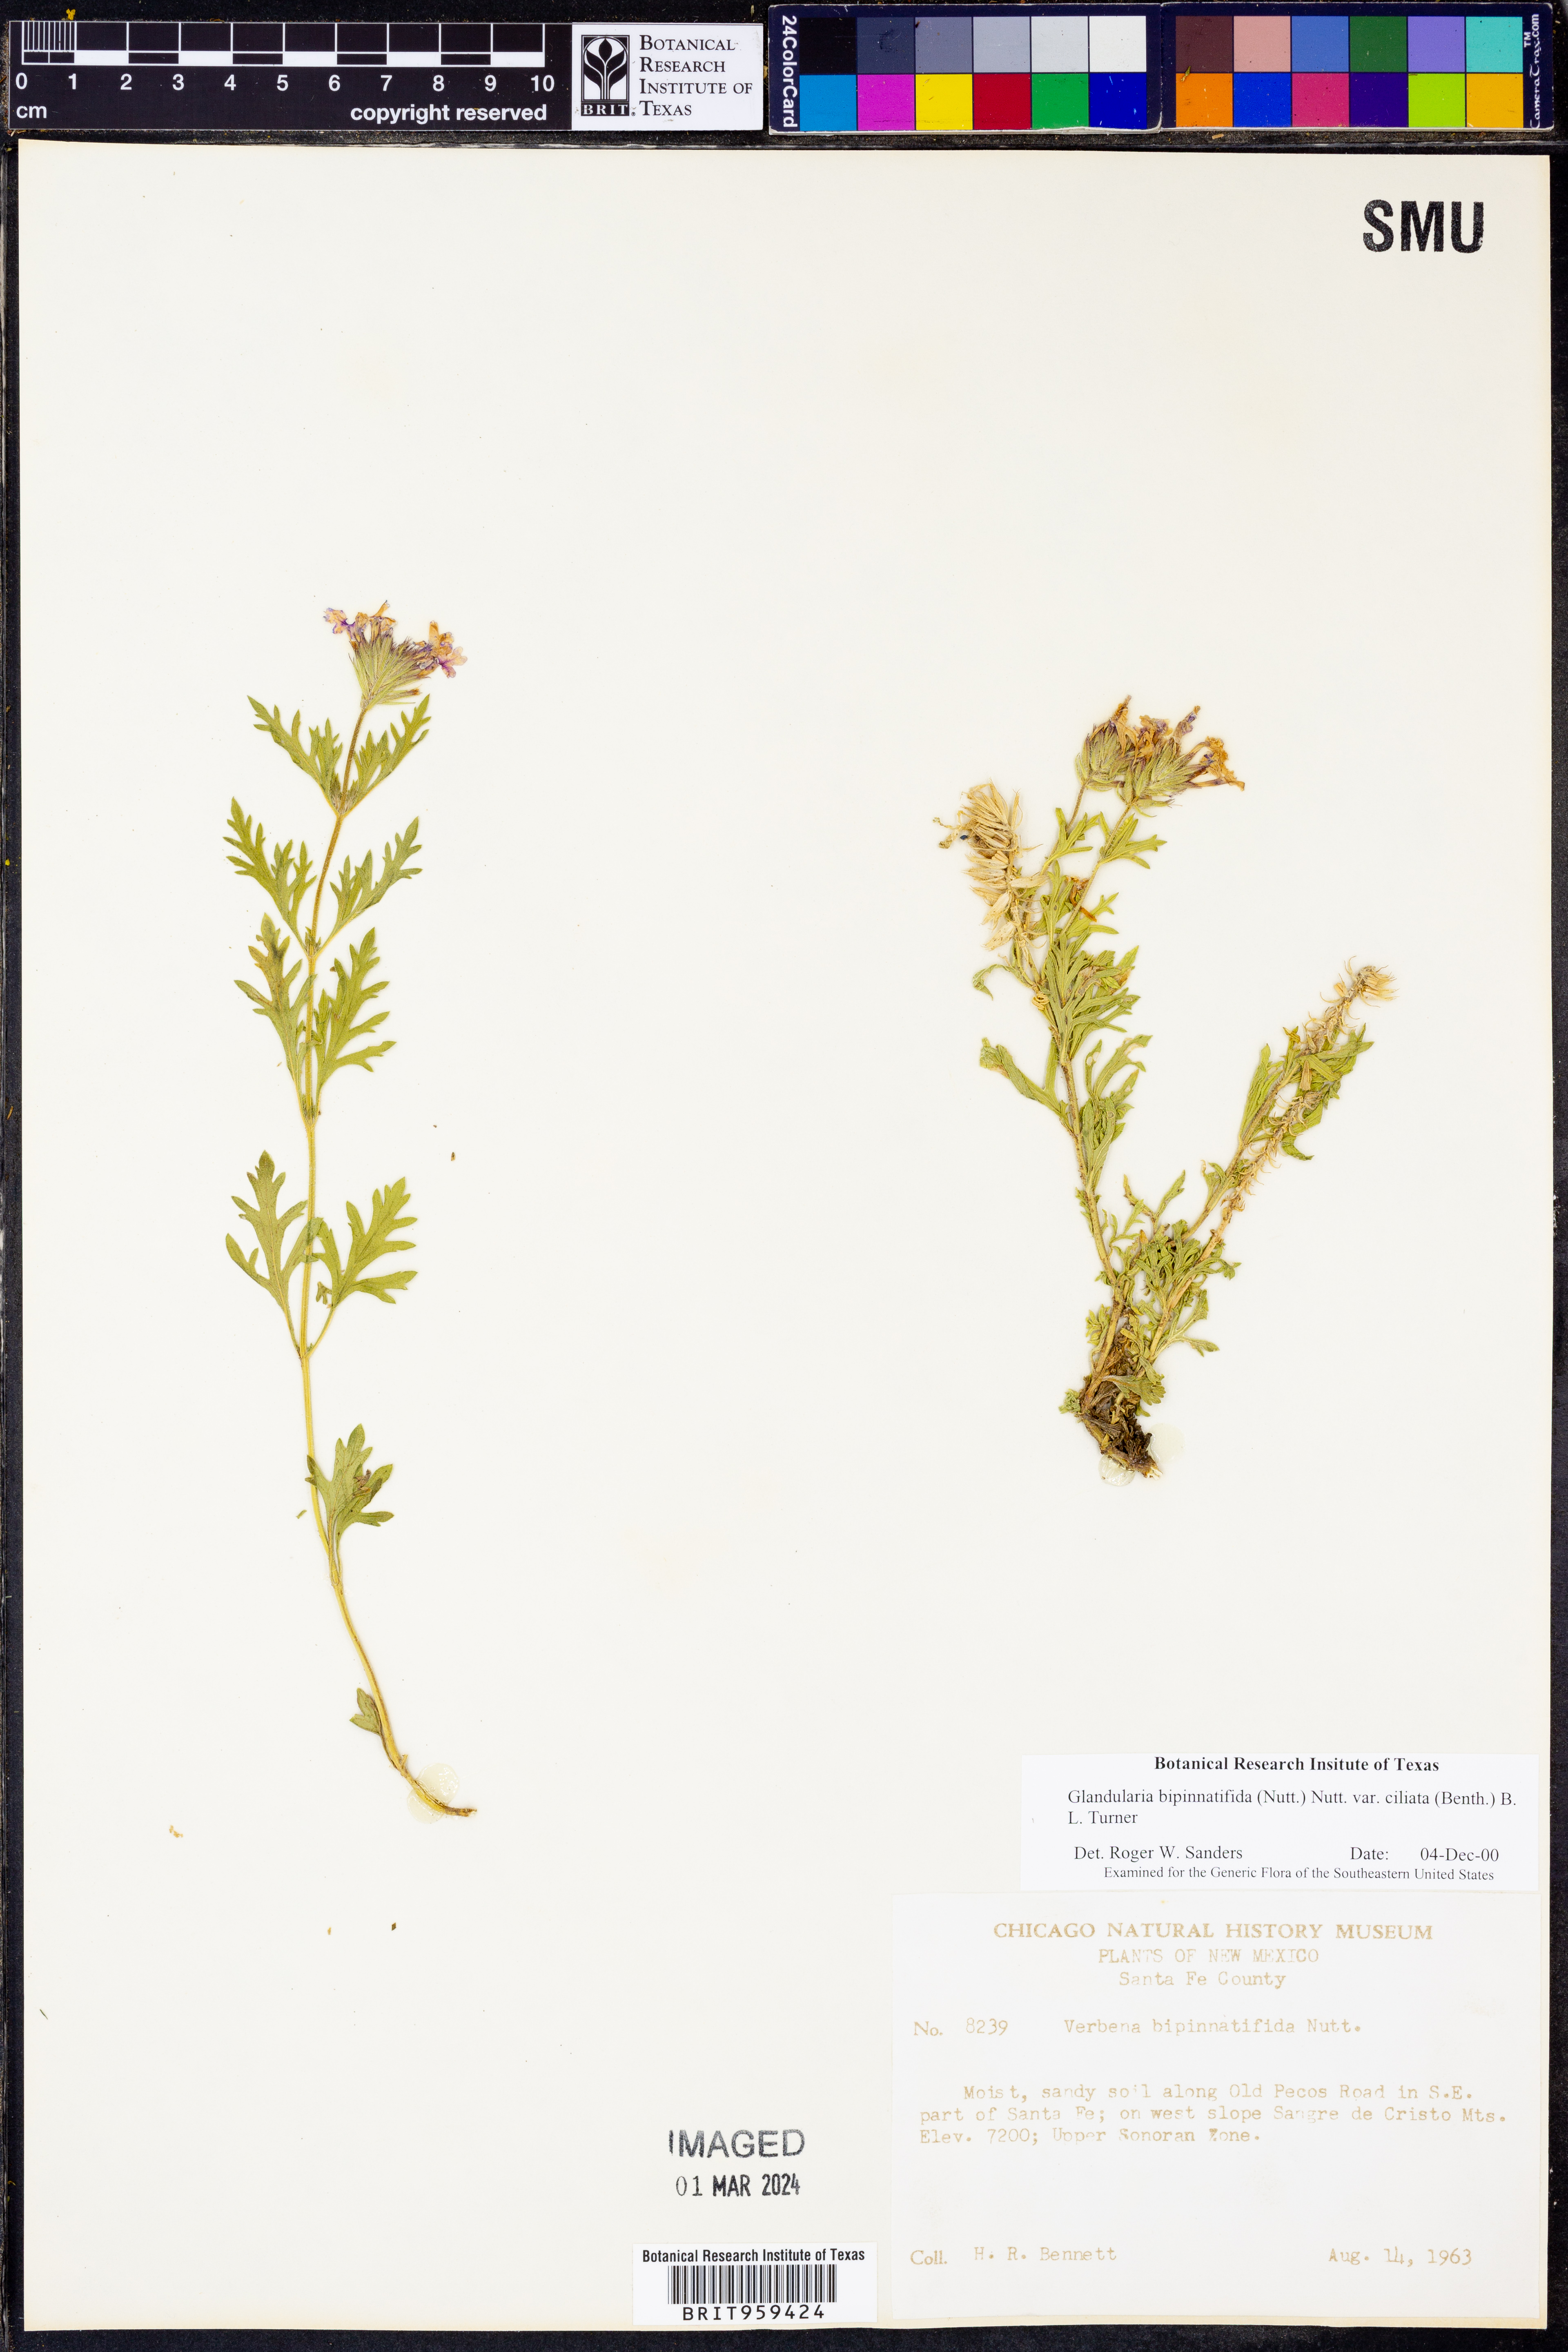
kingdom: Plantae
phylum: Tracheophyta
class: Magnoliopsida
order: Lamiales
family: Verbenaceae
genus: Verbena
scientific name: Verbena bipinnatifida
